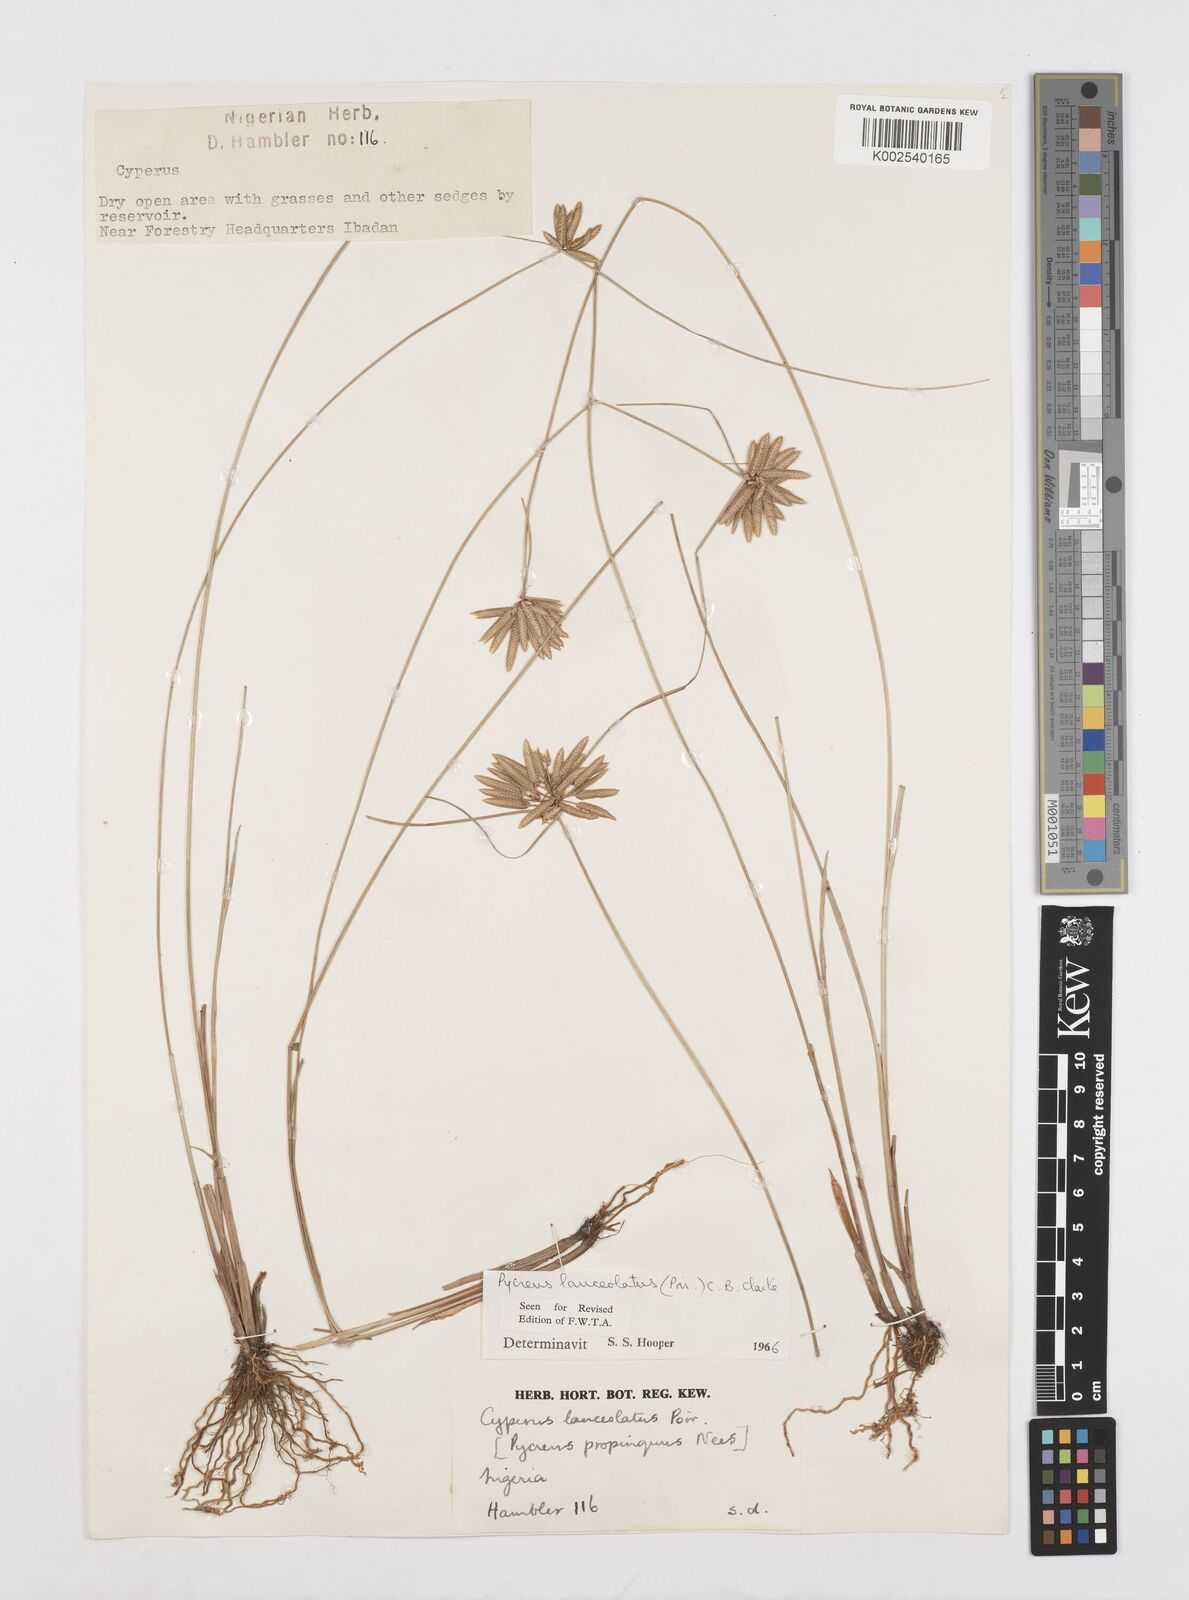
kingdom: Plantae
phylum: Tracheophyta
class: Liliopsida
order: Poales
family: Cyperaceae
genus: Cyperus
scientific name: Cyperus
